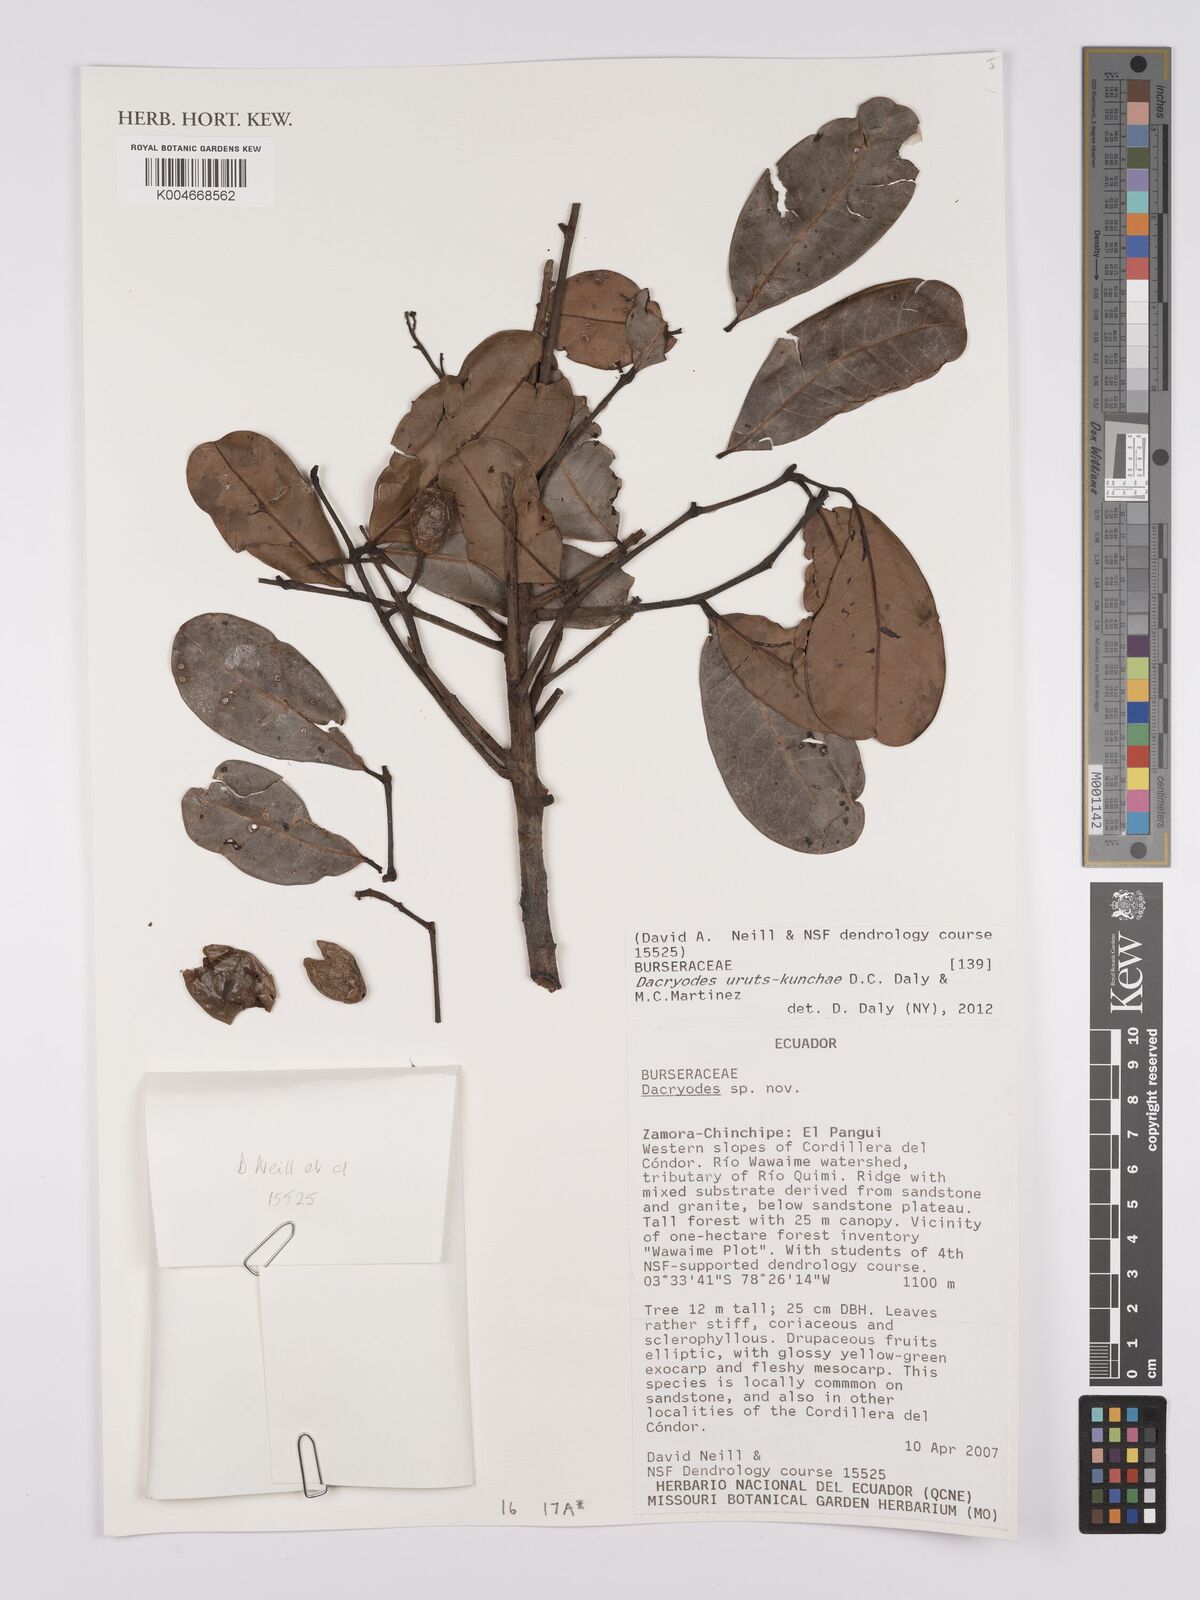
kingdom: Plantae
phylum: Tracheophyta
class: Magnoliopsida
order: Sapindales
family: Burseraceae
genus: Dacryodes
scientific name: Dacryodes uruts-kunchae
